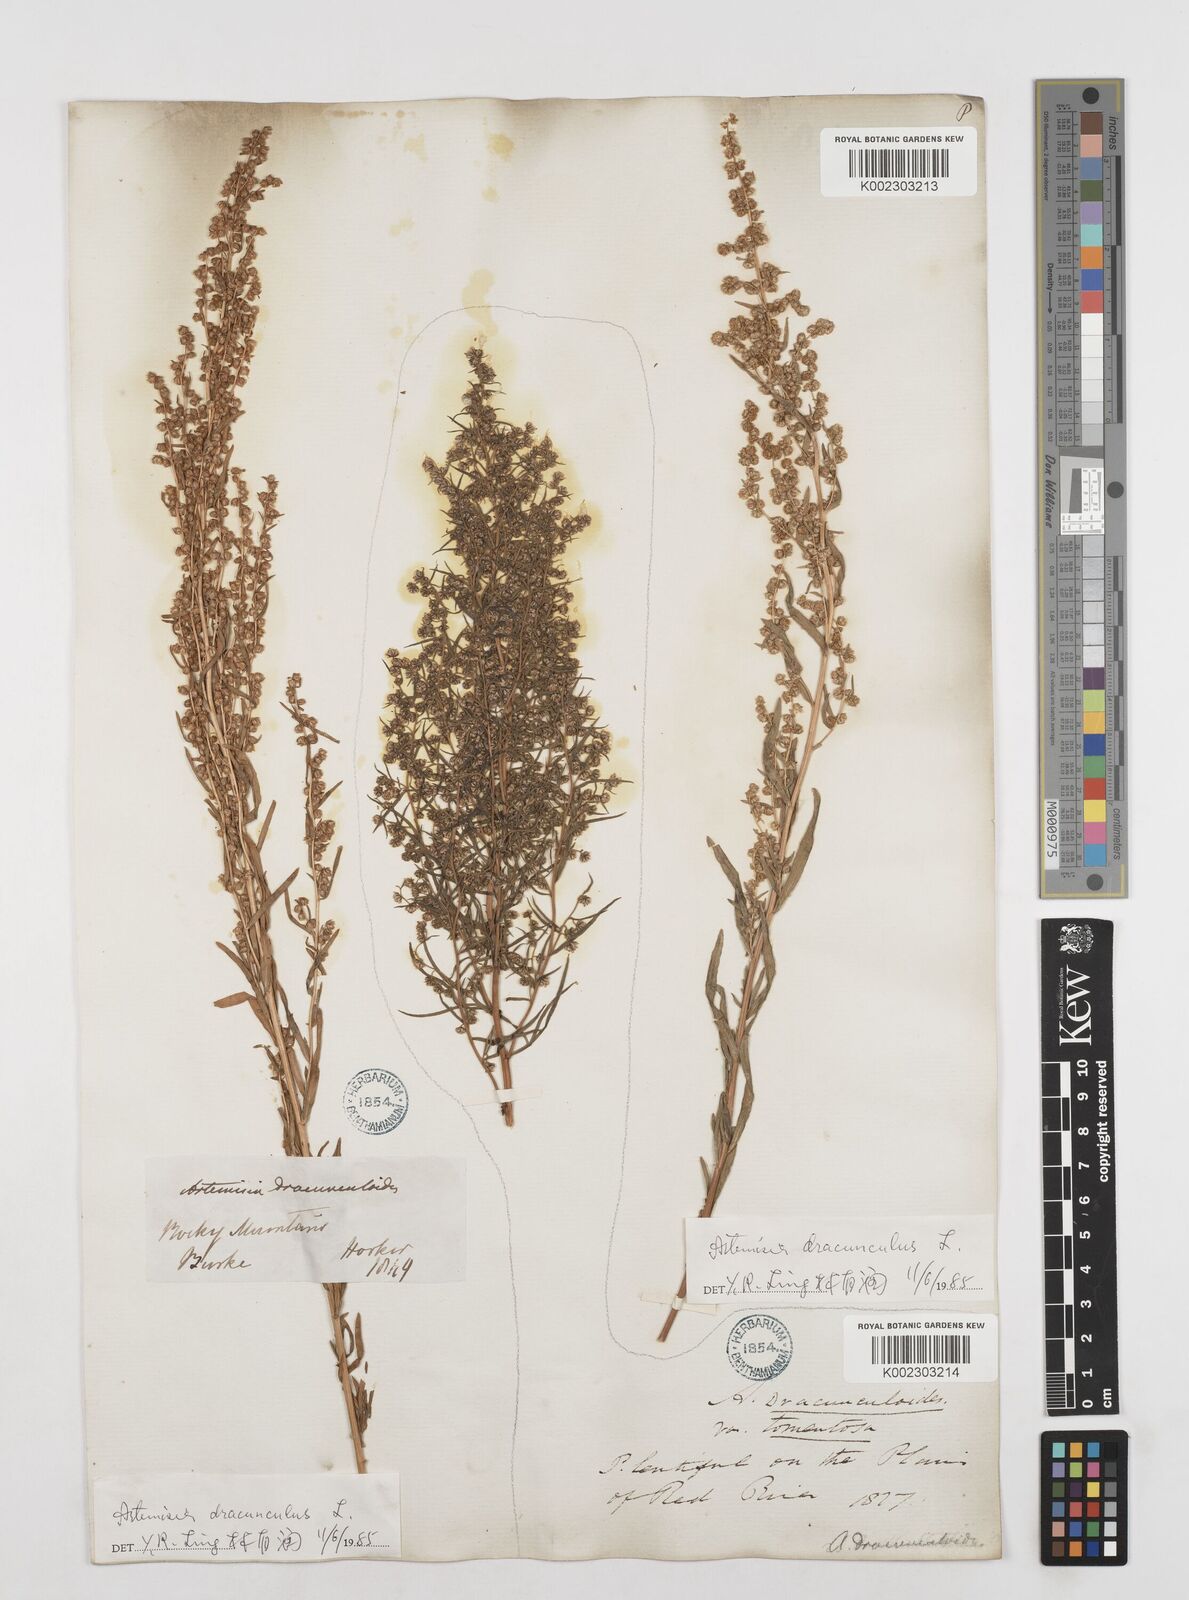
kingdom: Plantae
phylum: Tracheophyta
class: Magnoliopsida
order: Asterales
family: Asteraceae
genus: Artemisia
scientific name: Artemisia dracunculus
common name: Tarragon
